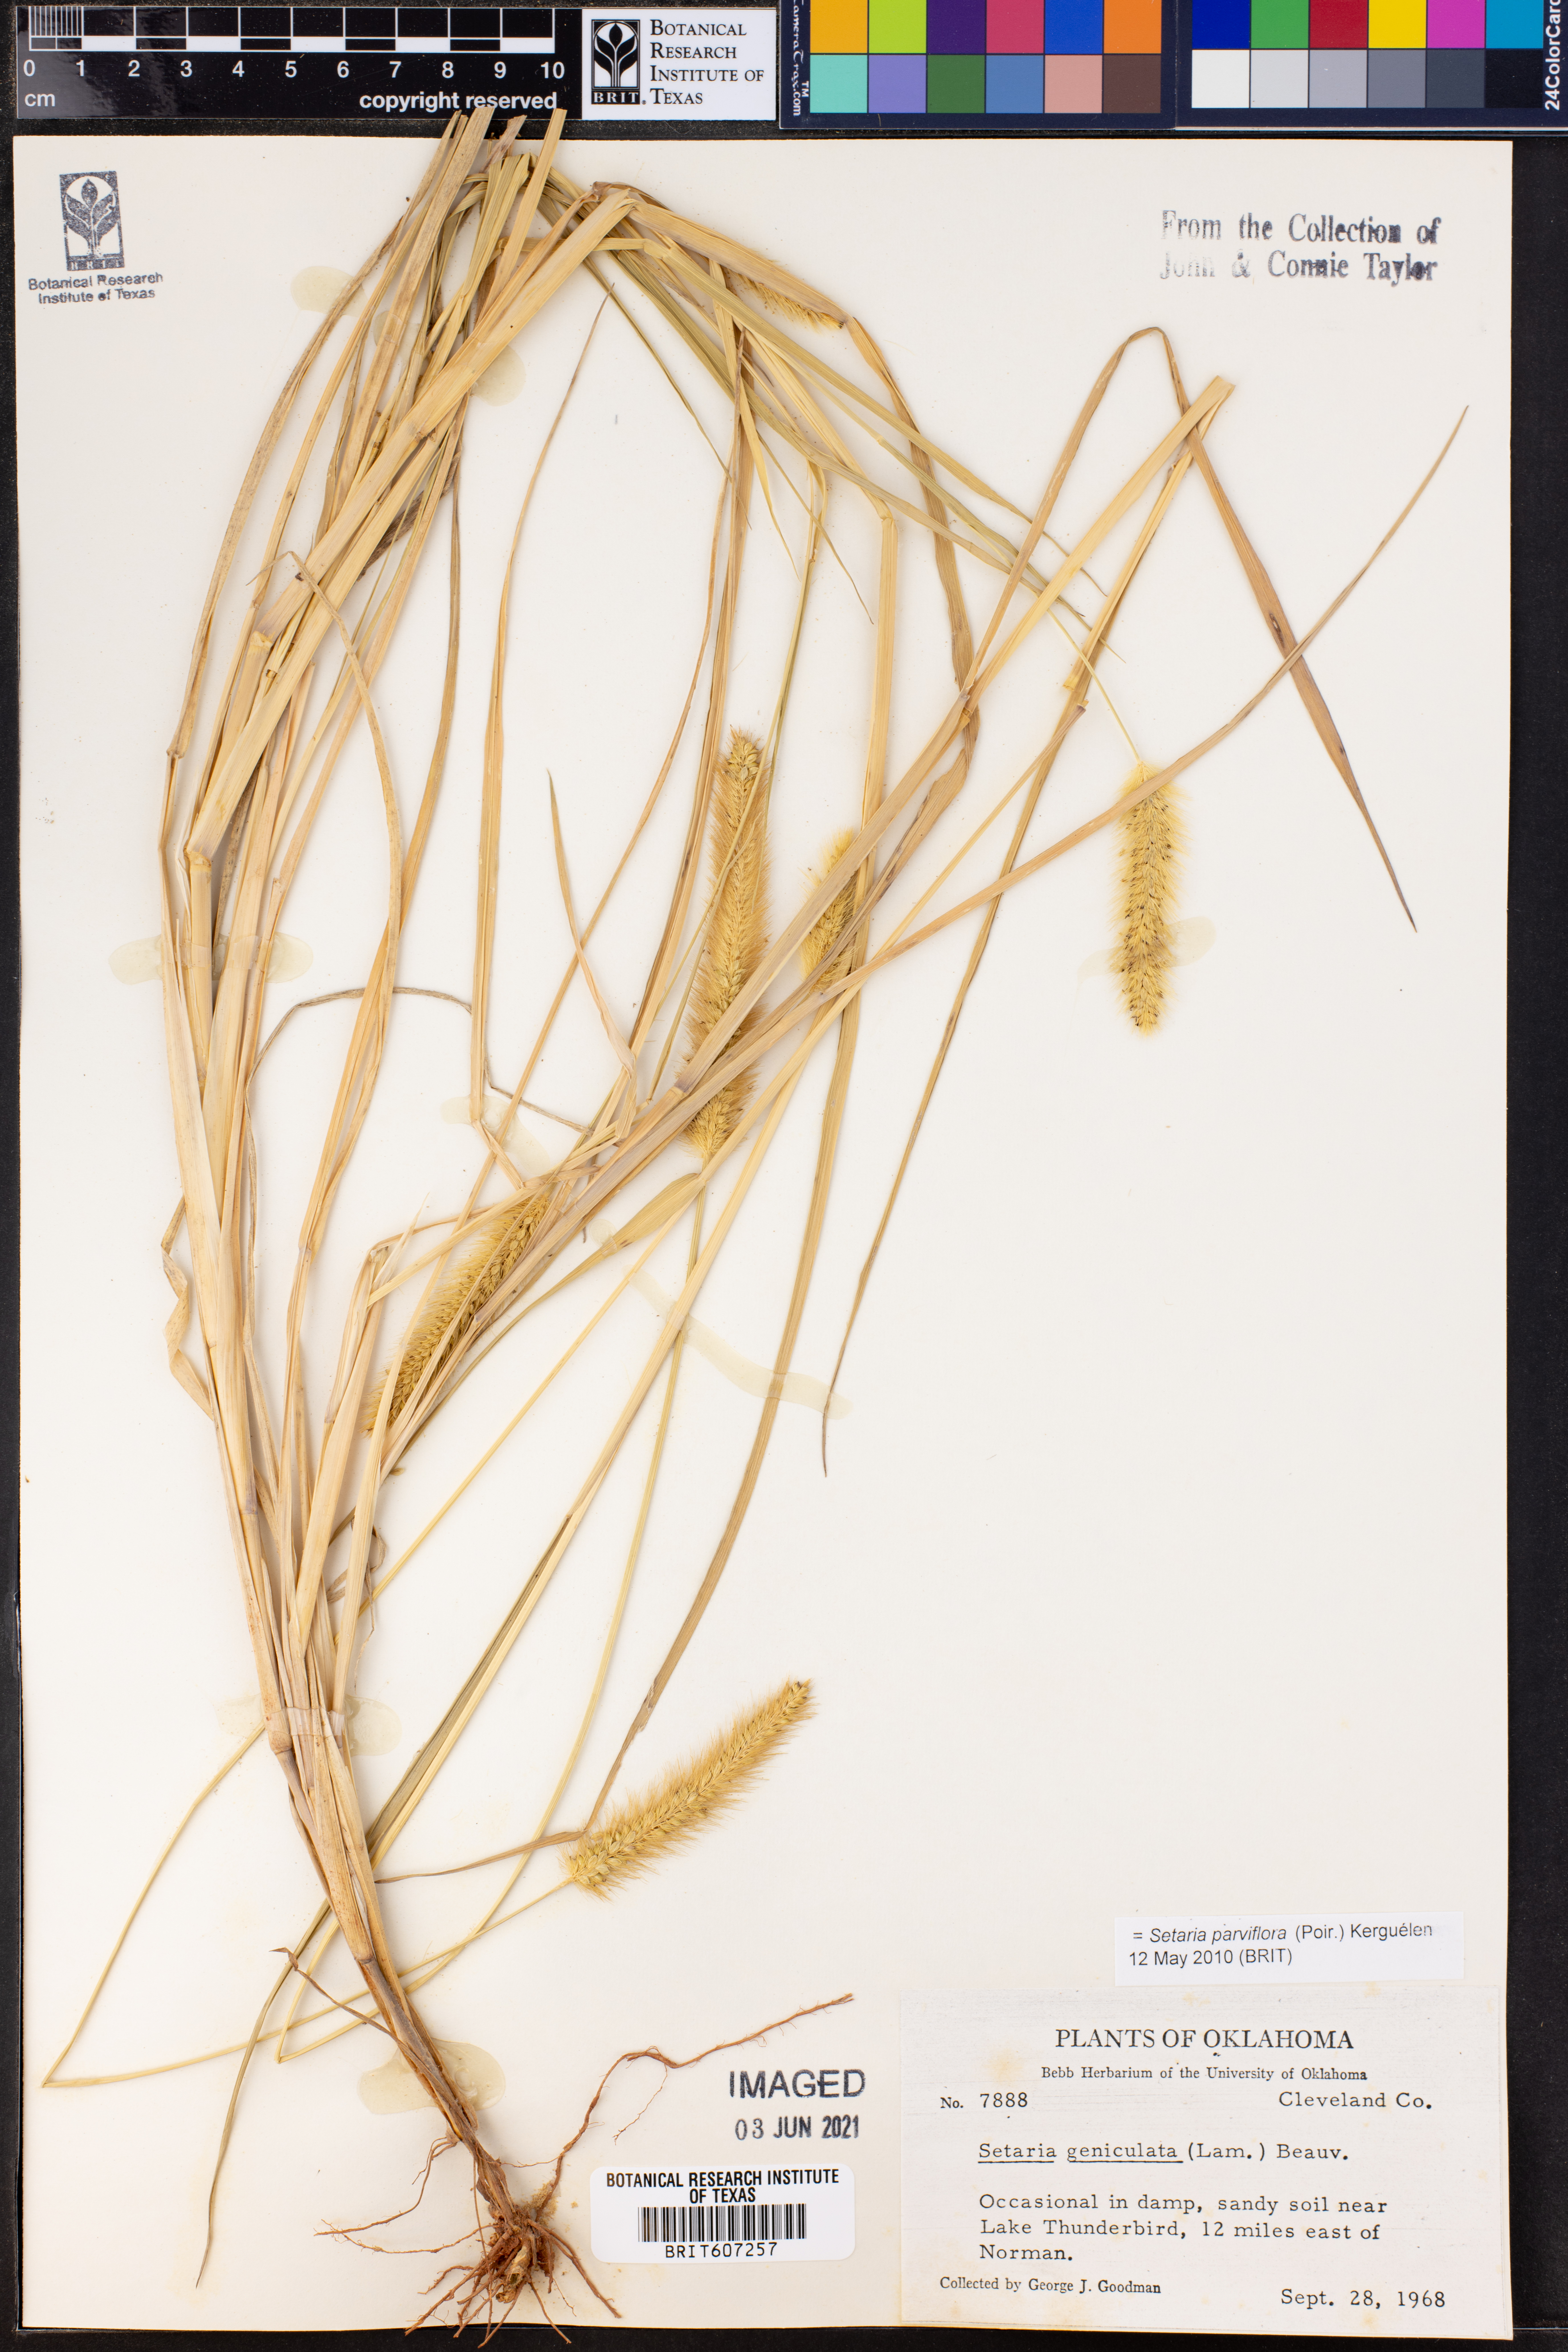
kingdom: Plantae
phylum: Tracheophyta
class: Liliopsida
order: Poales
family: Poaceae
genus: Setaria
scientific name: Setaria parviflora
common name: Knotroot bristle-grass
